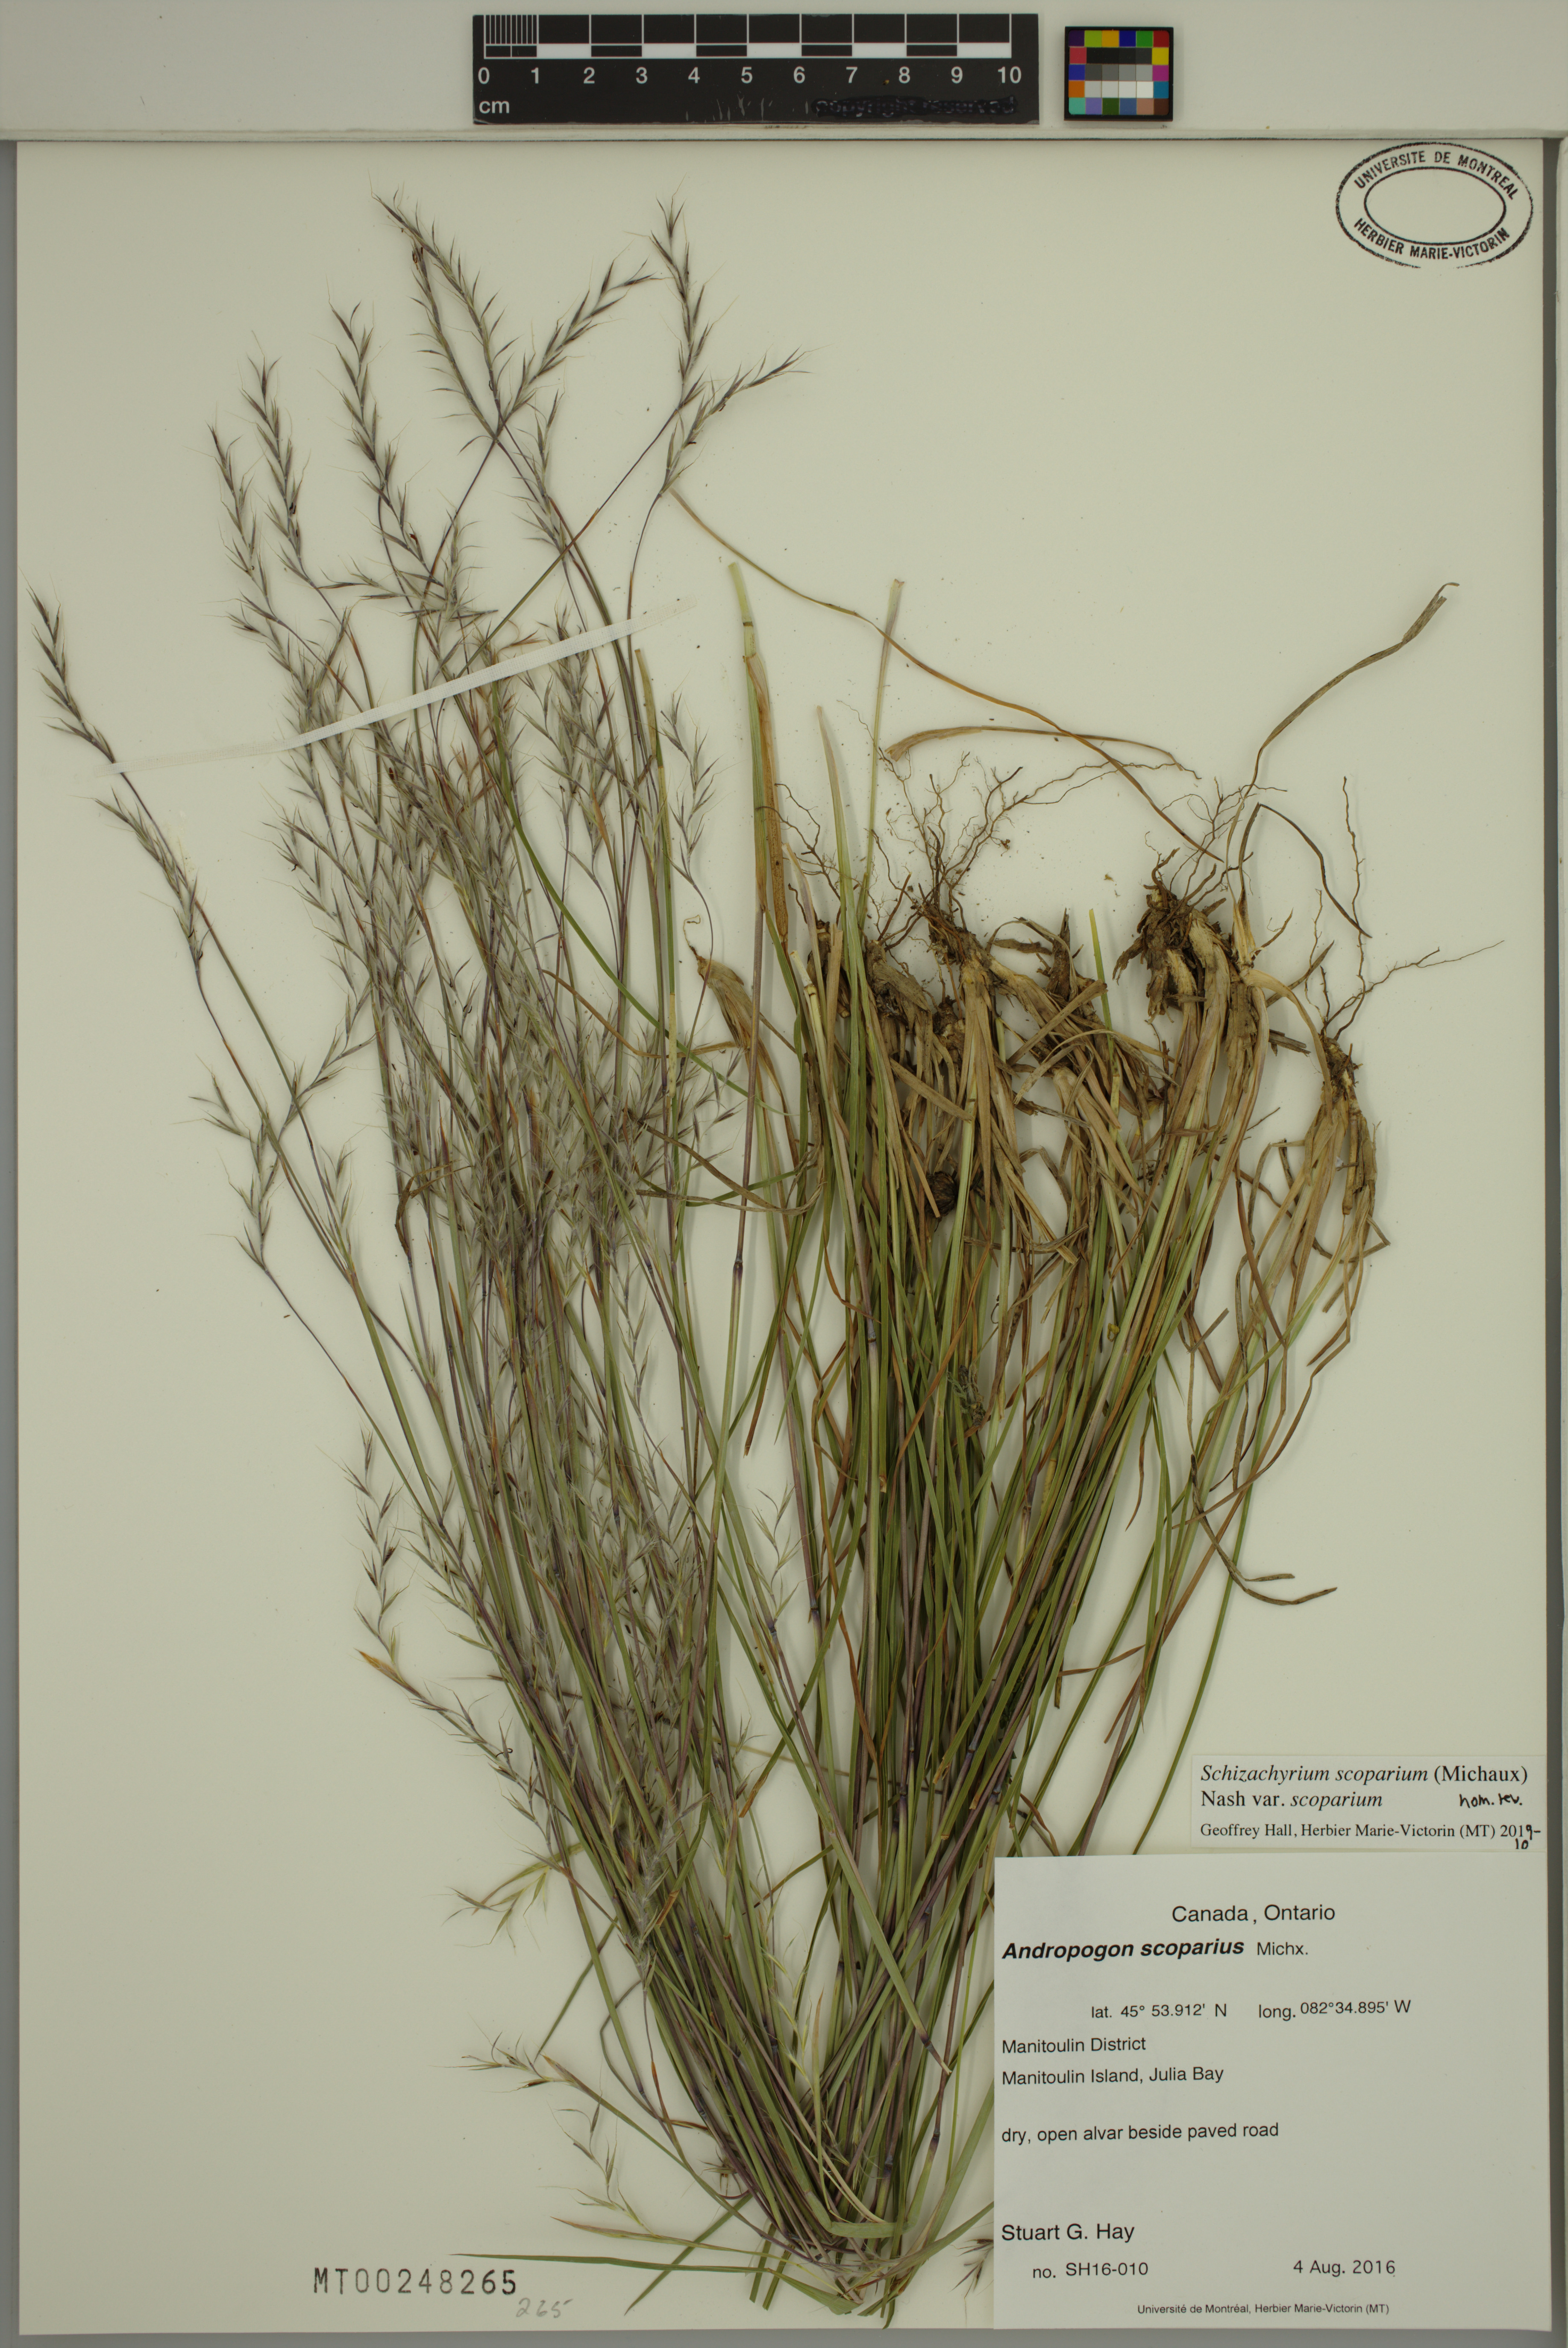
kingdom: Plantae
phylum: Tracheophyta
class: Liliopsida
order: Poales
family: Poaceae
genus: Schizachyrium
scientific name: Schizachyrium scoparium
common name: Little bluestem
